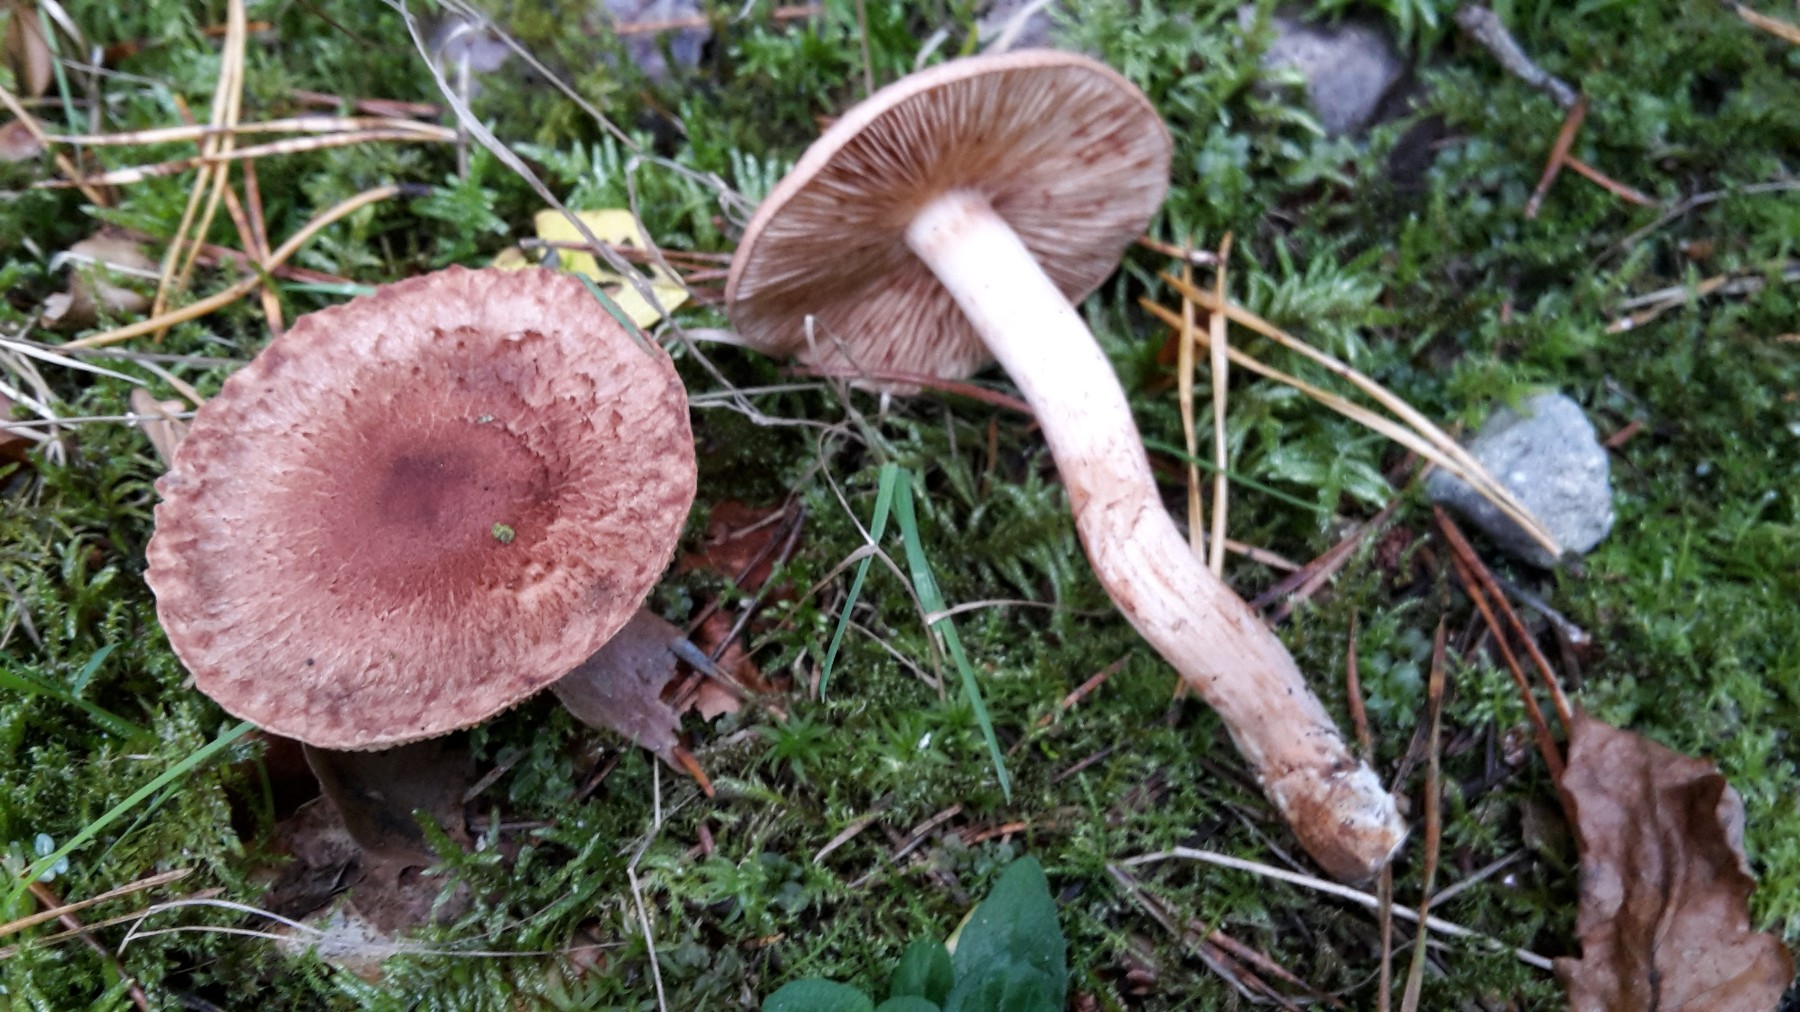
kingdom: Fungi
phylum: Basidiomycota
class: Agaricomycetes
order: Agaricales
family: Tricholomataceae
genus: Tricholoma
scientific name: Tricholoma vaccinum
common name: ko-ridderhat
